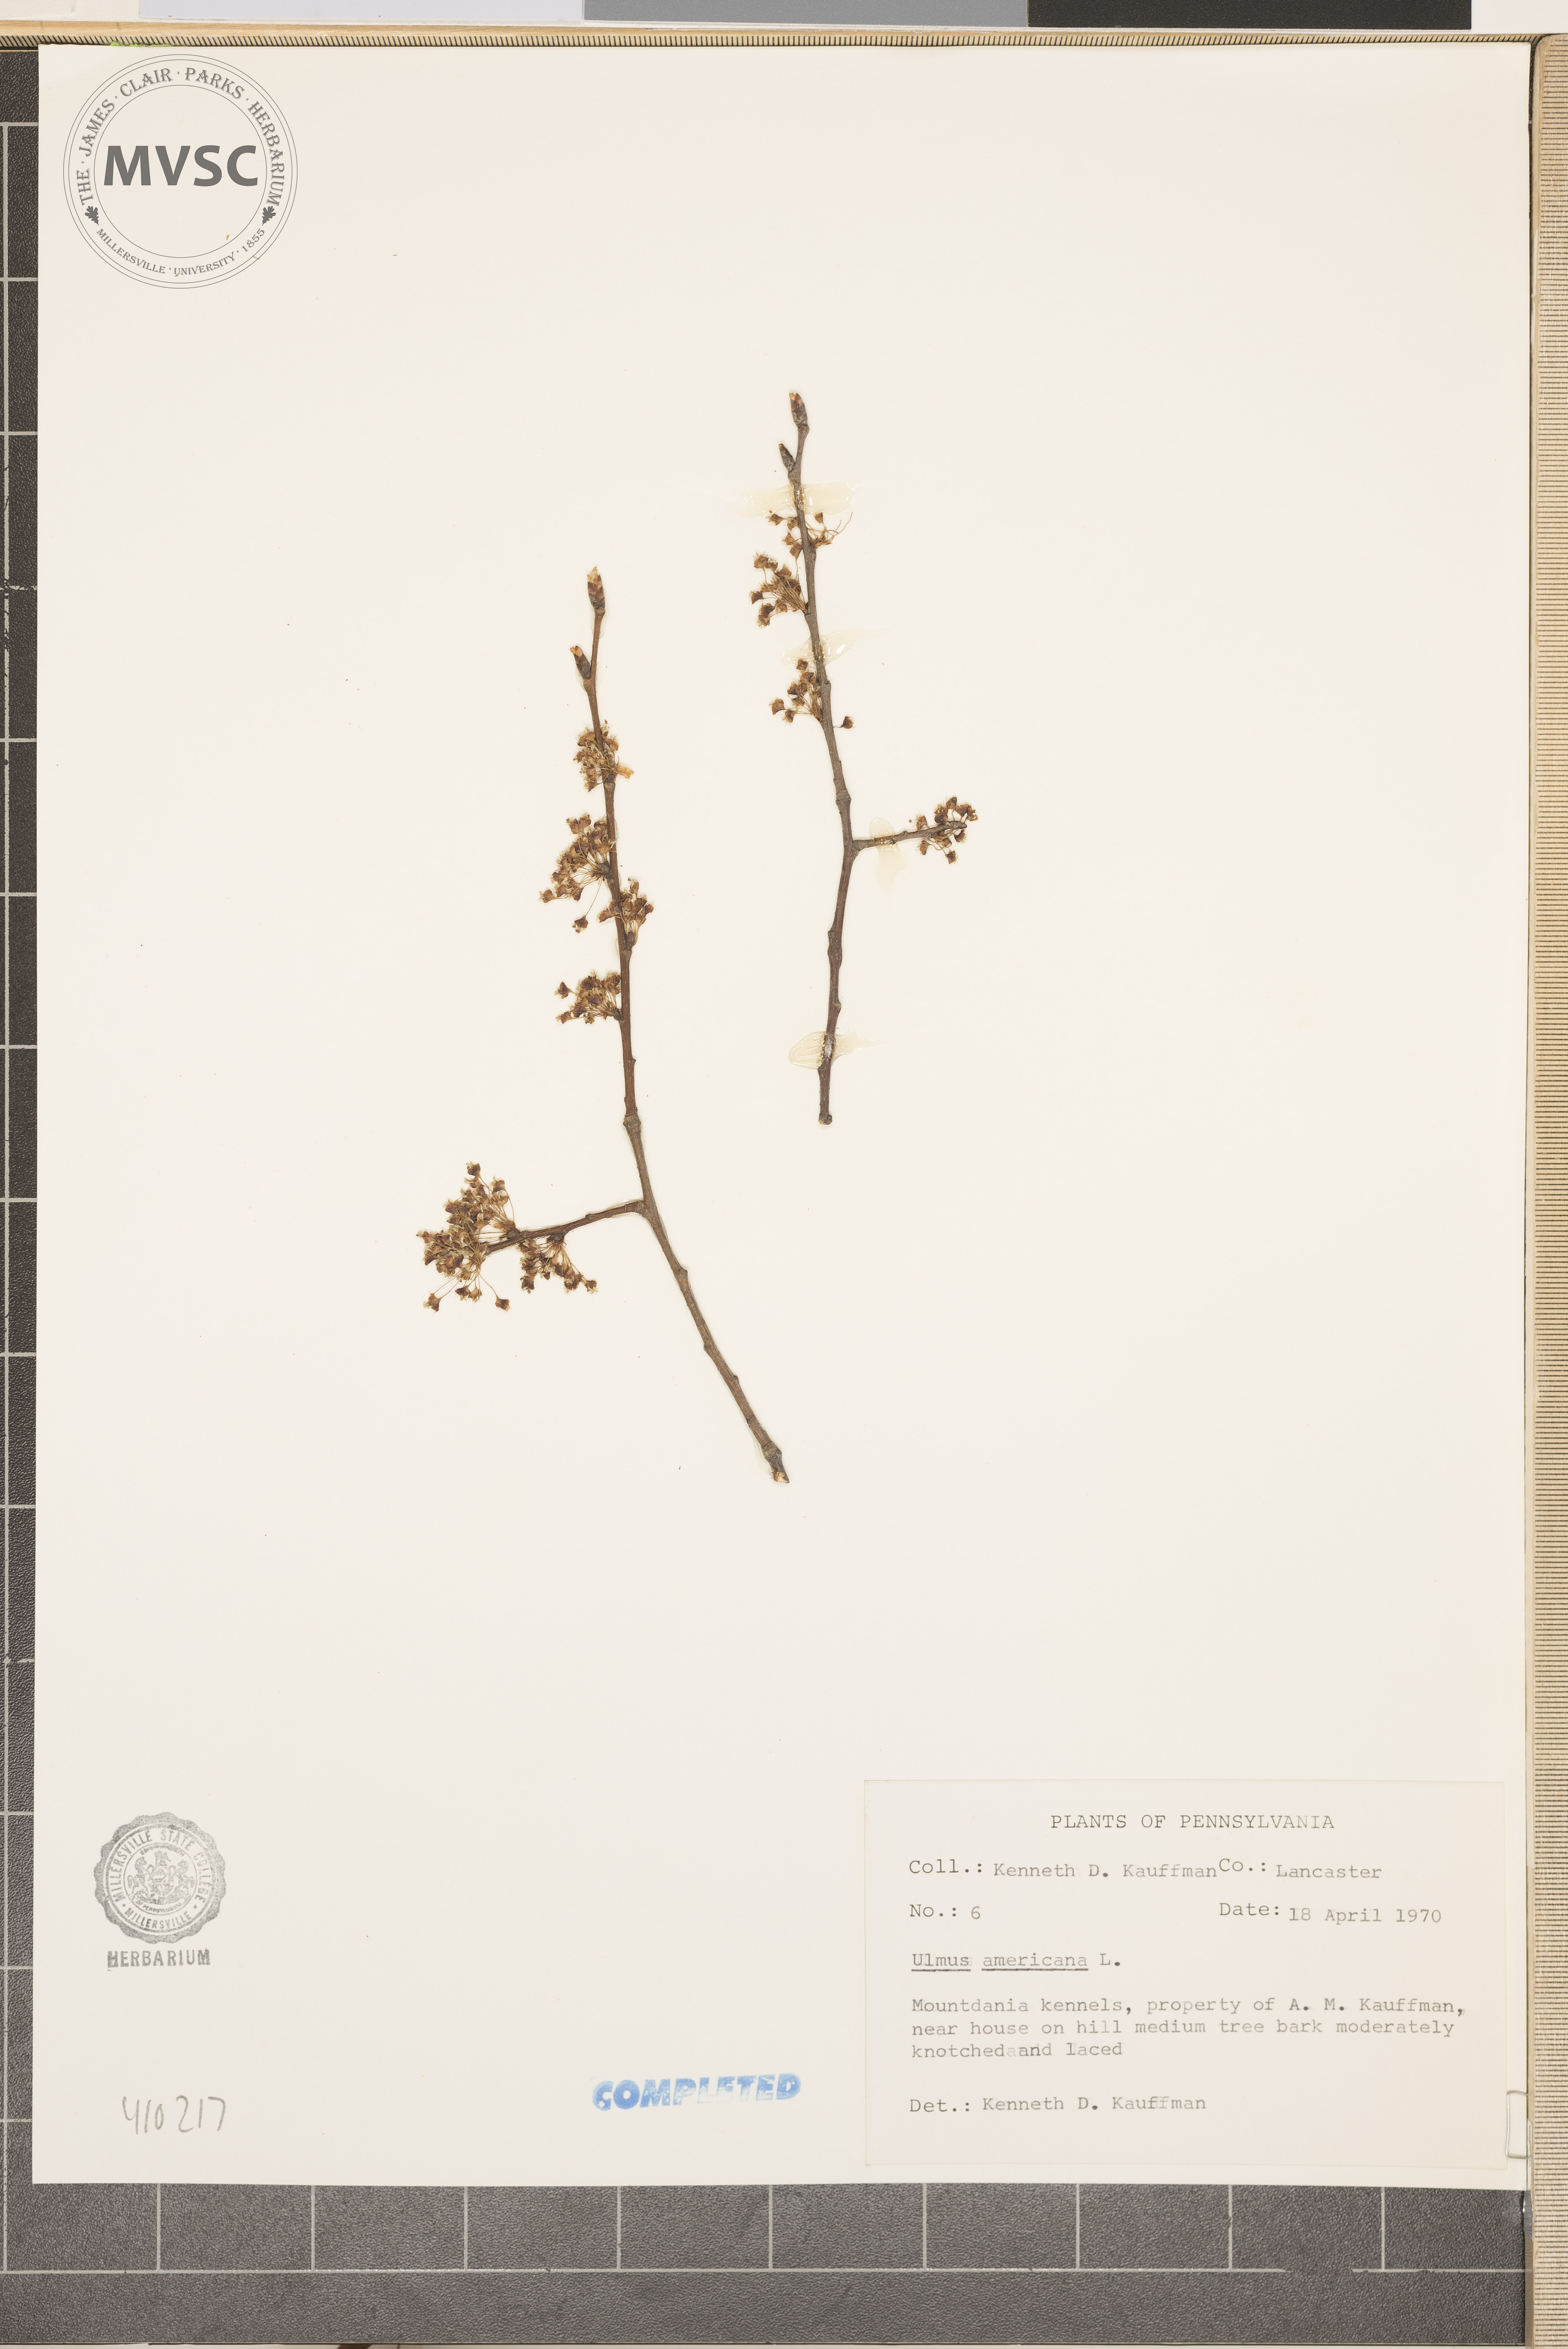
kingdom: Plantae
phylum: Tracheophyta
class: Magnoliopsida
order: Rosales
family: Ulmaceae
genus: Ulmus
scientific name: Ulmus americana
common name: American elm
